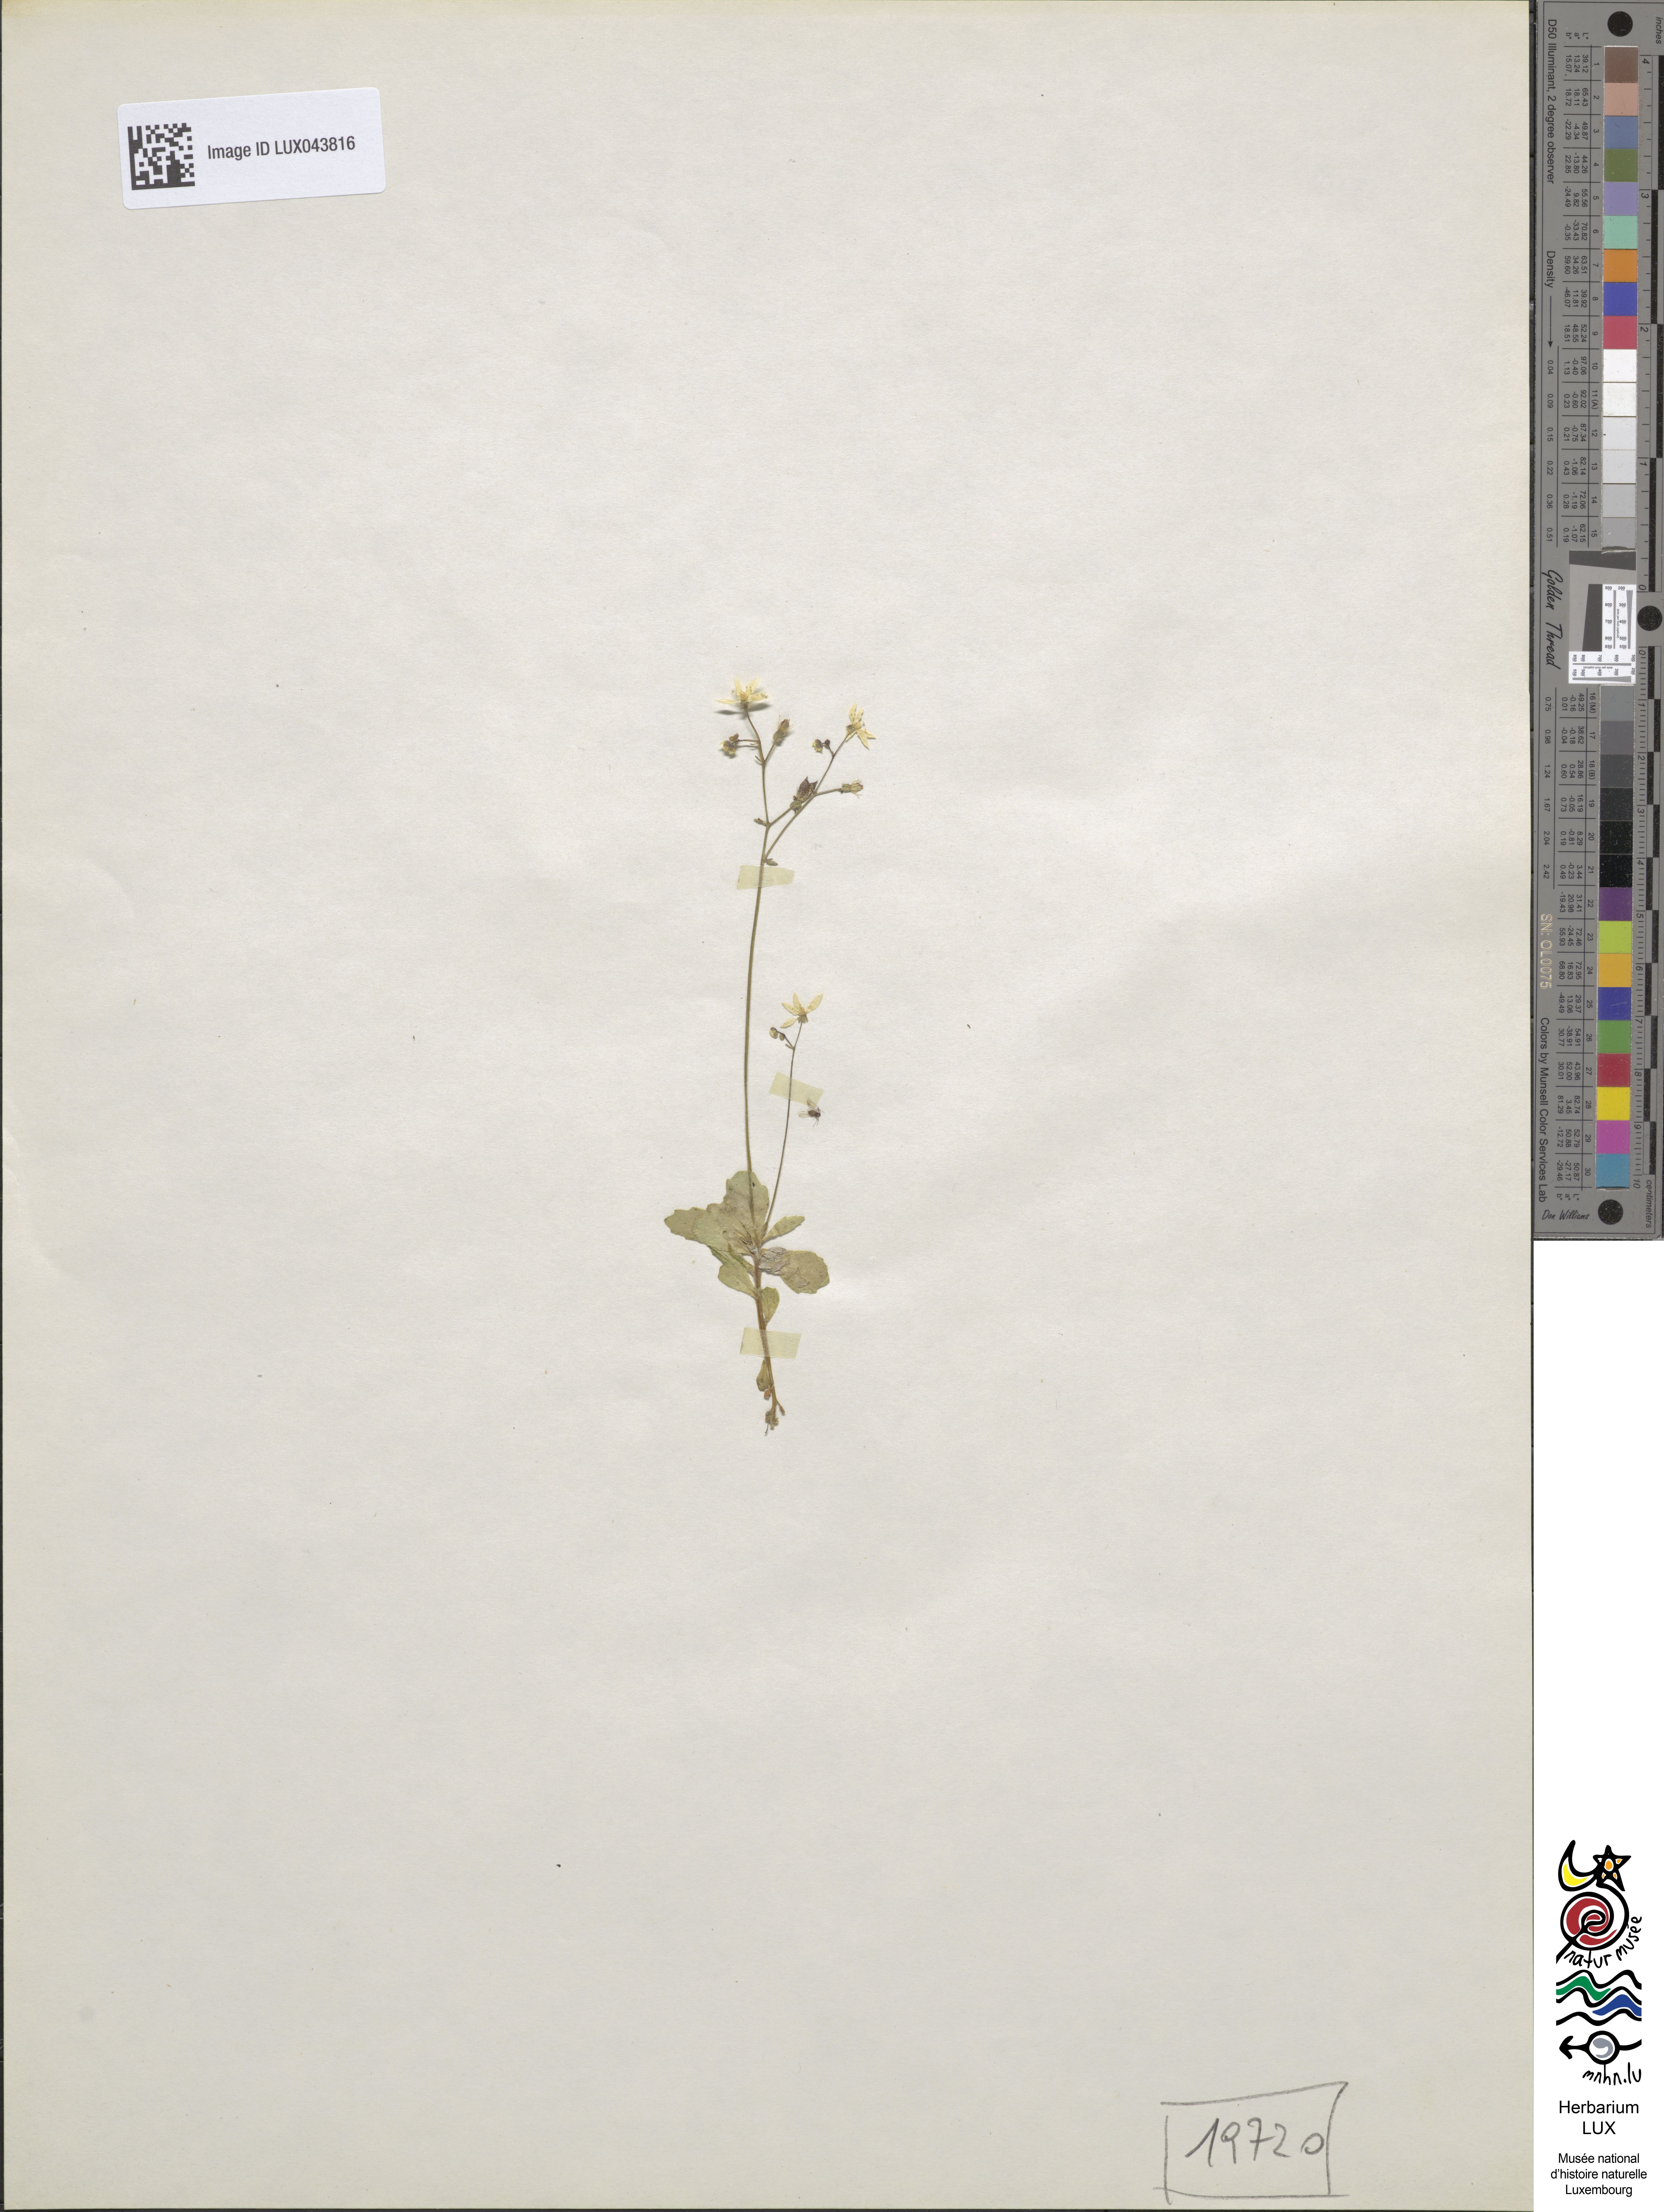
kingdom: Plantae
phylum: Tracheophyta
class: Magnoliopsida
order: Saxifragales
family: Saxifragaceae
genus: Micranthes
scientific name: Micranthes stellaris
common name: Starry saxifrage
